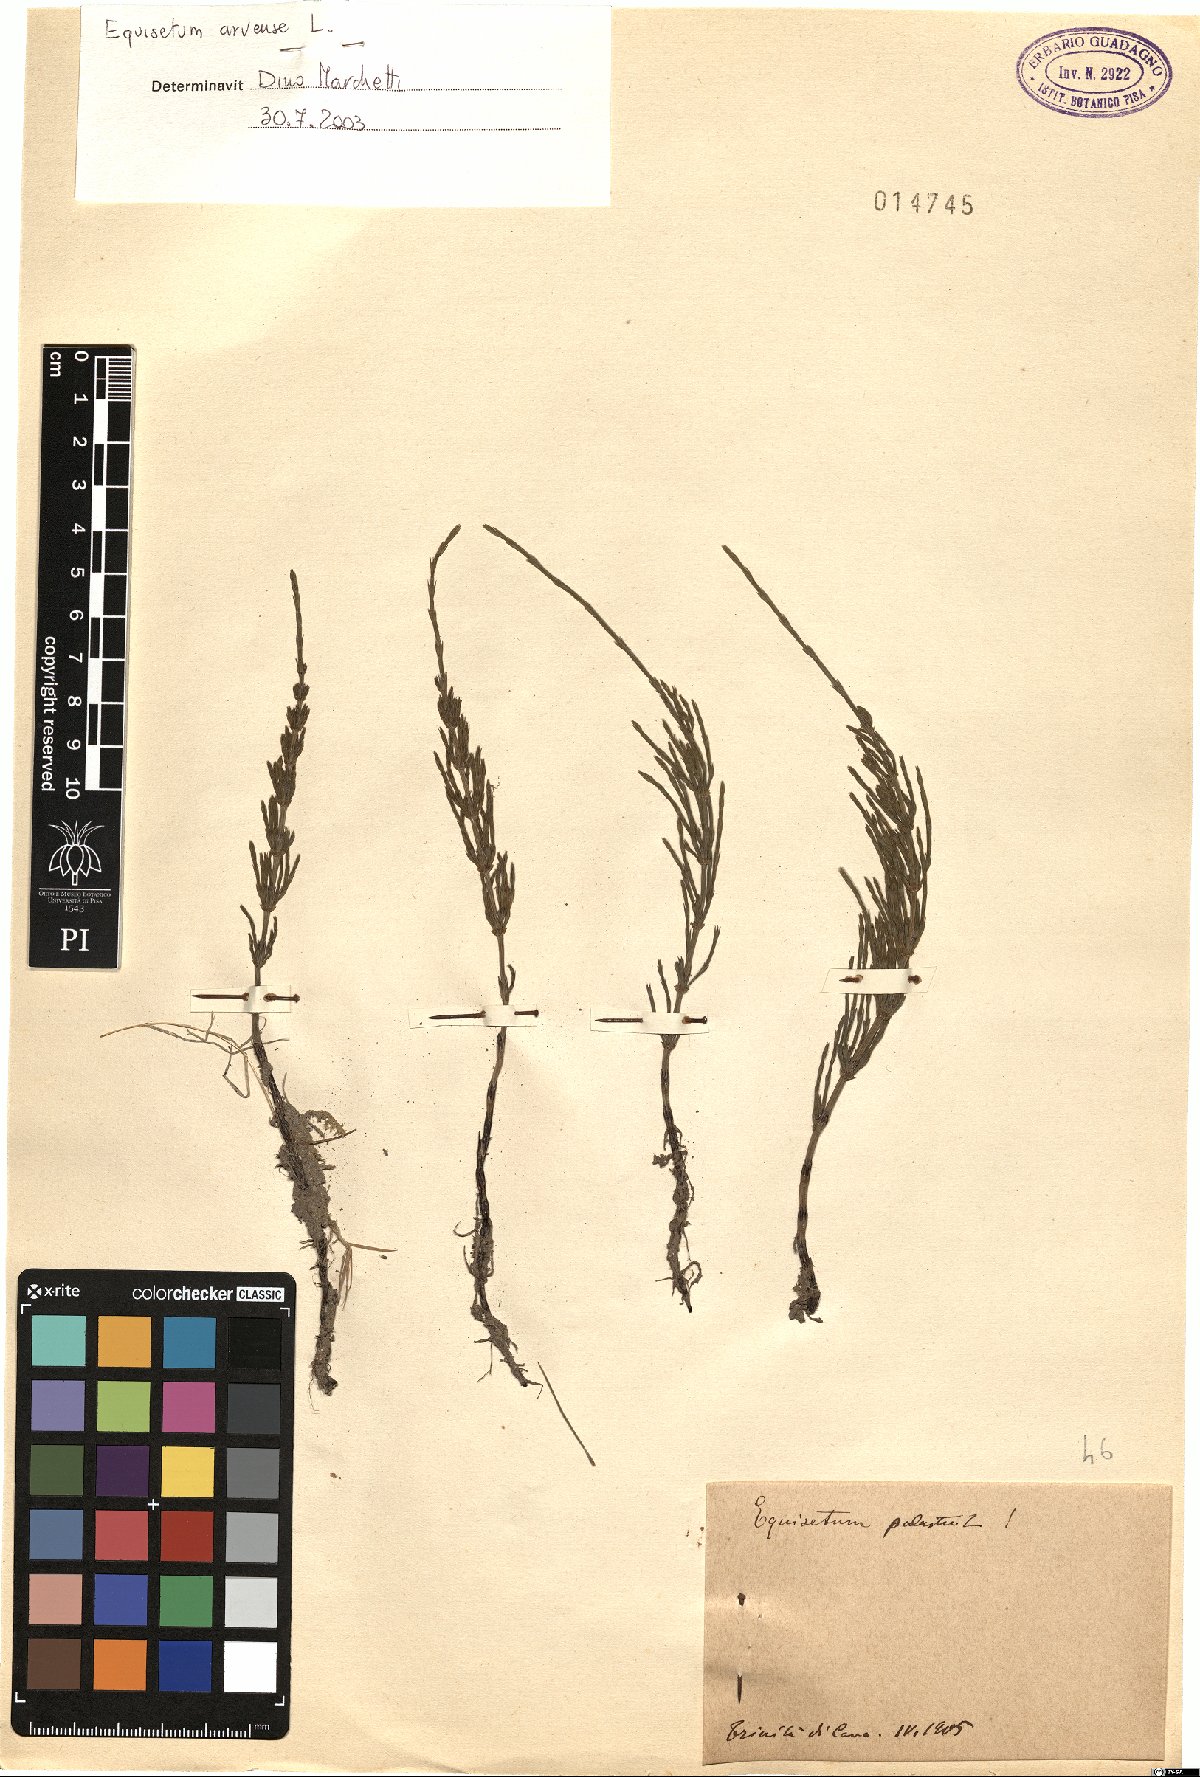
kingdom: Plantae
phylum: Tracheophyta
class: Polypodiopsida
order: Equisetales
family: Equisetaceae
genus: Equisetum
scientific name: Equisetum arvense
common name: Field horsetail
